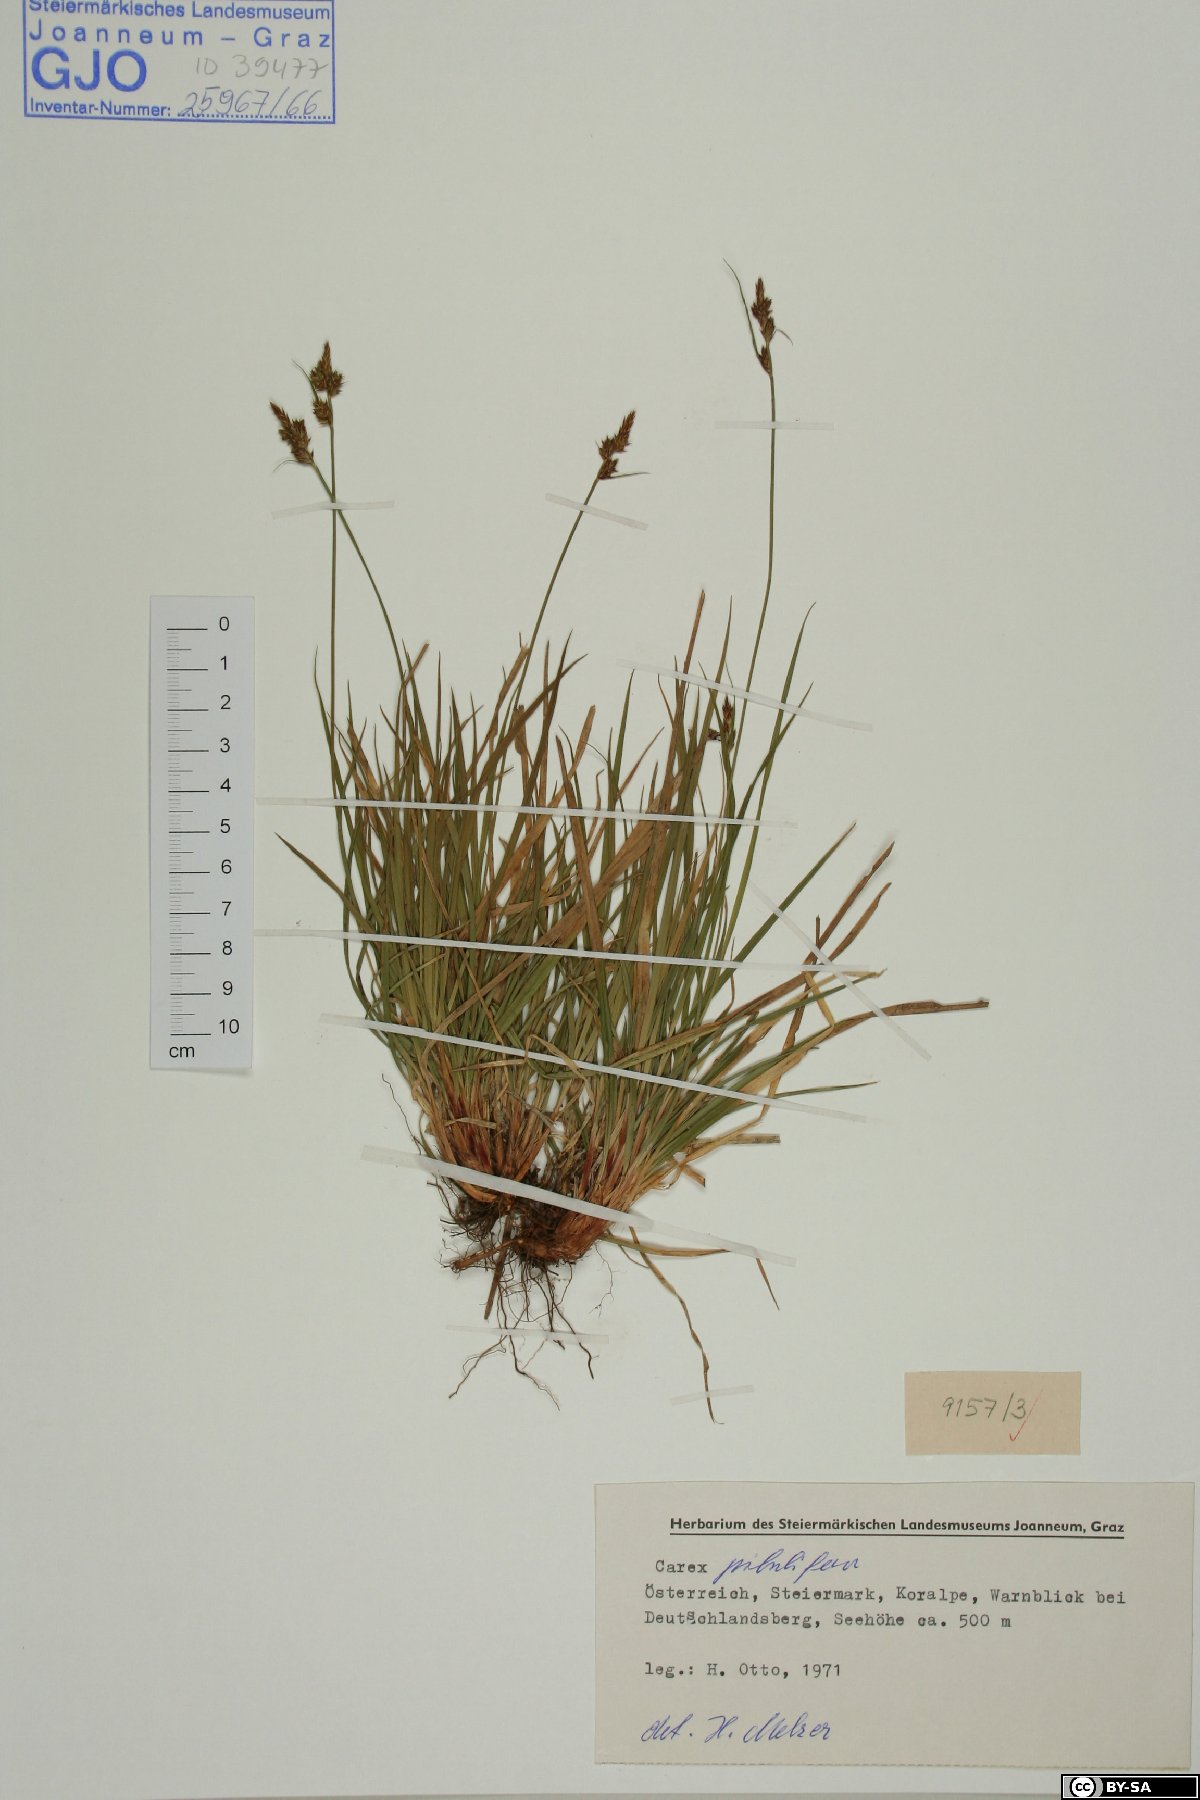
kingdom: Plantae
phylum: Tracheophyta
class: Liliopsida
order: Poales
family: Cyperaceae
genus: Carex
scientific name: Carex pilulifera
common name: Pill sedge
